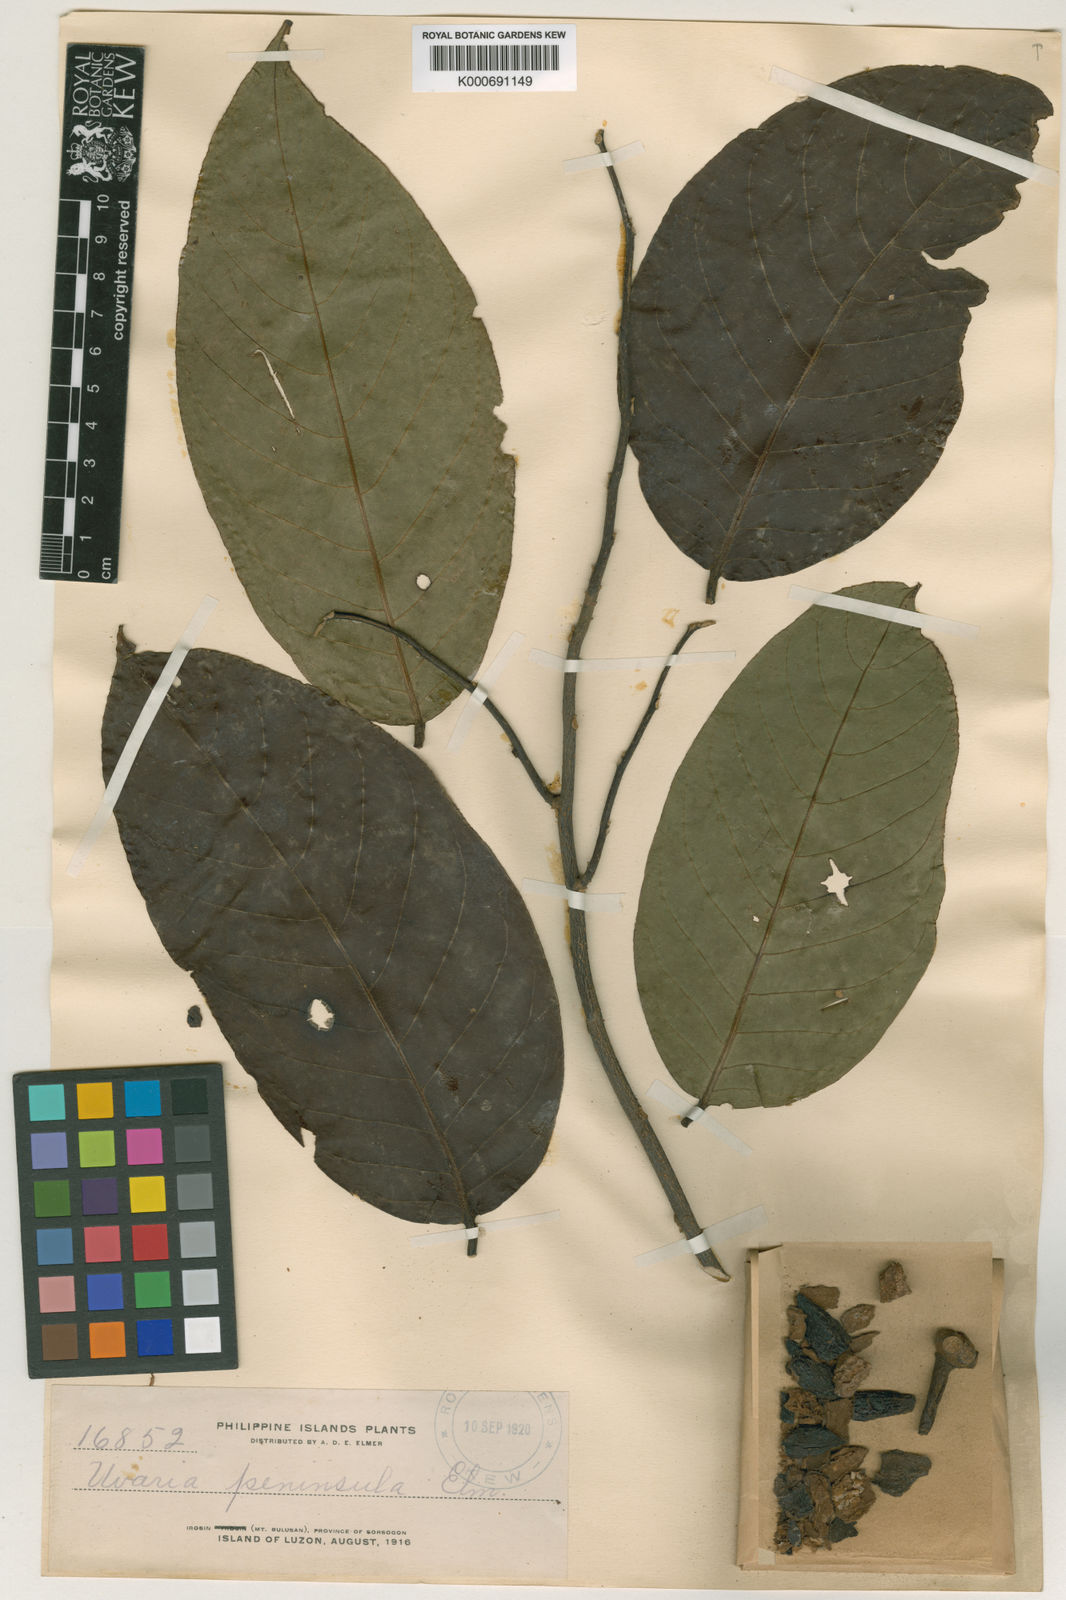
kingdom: Plantae
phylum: Tracheophyta
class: Magnoliopsida
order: Magnoliales
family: Annonaceae
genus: Uvaria
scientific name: Uvaria peninsula
